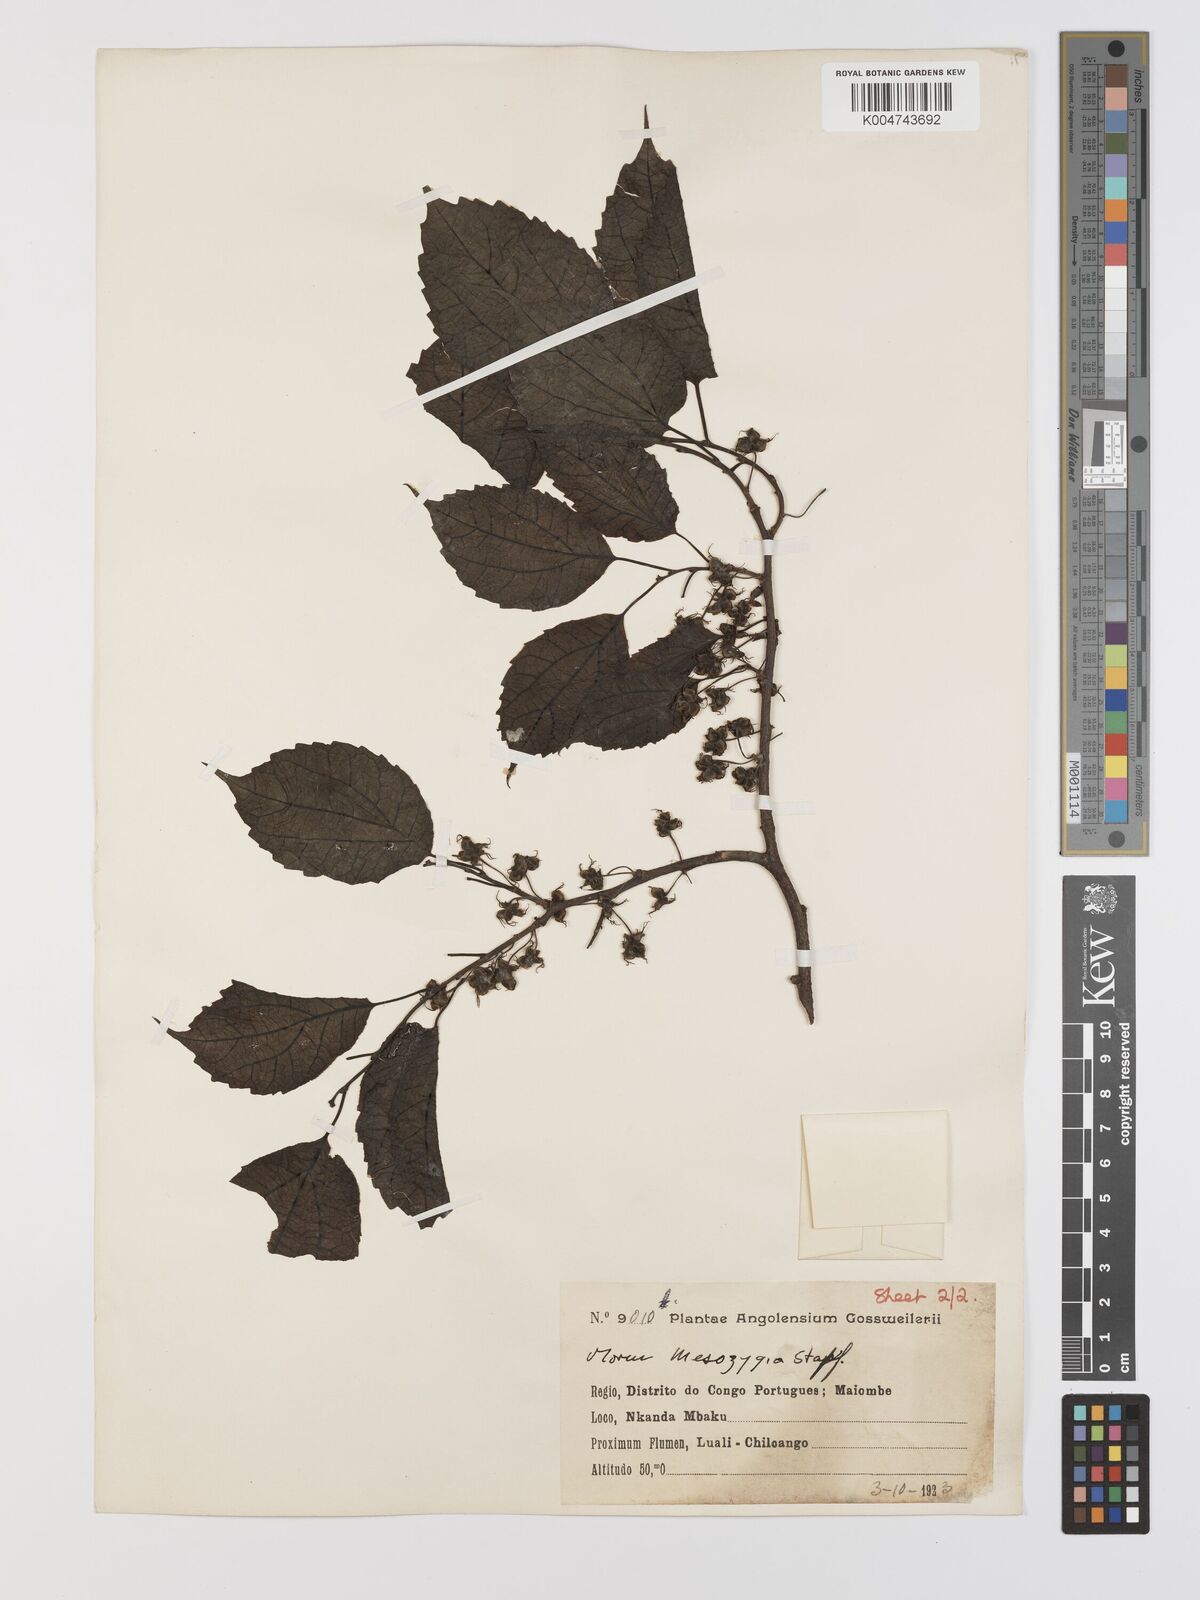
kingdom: Plantae
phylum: Tracheophyta
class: Magnoliopsida
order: Rosales
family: Moraceae
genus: Afromorus
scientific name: Afromorus mesozygia
